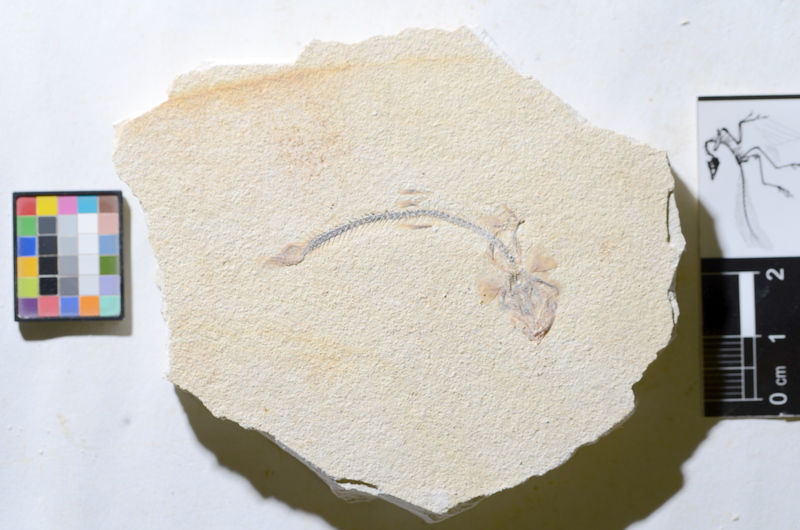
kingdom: Animalia
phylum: Chordata
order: Salmoniformes
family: Orthogonikleithridae
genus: Orthogonikleithrus
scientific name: Orthogonikleithrus hoelli
